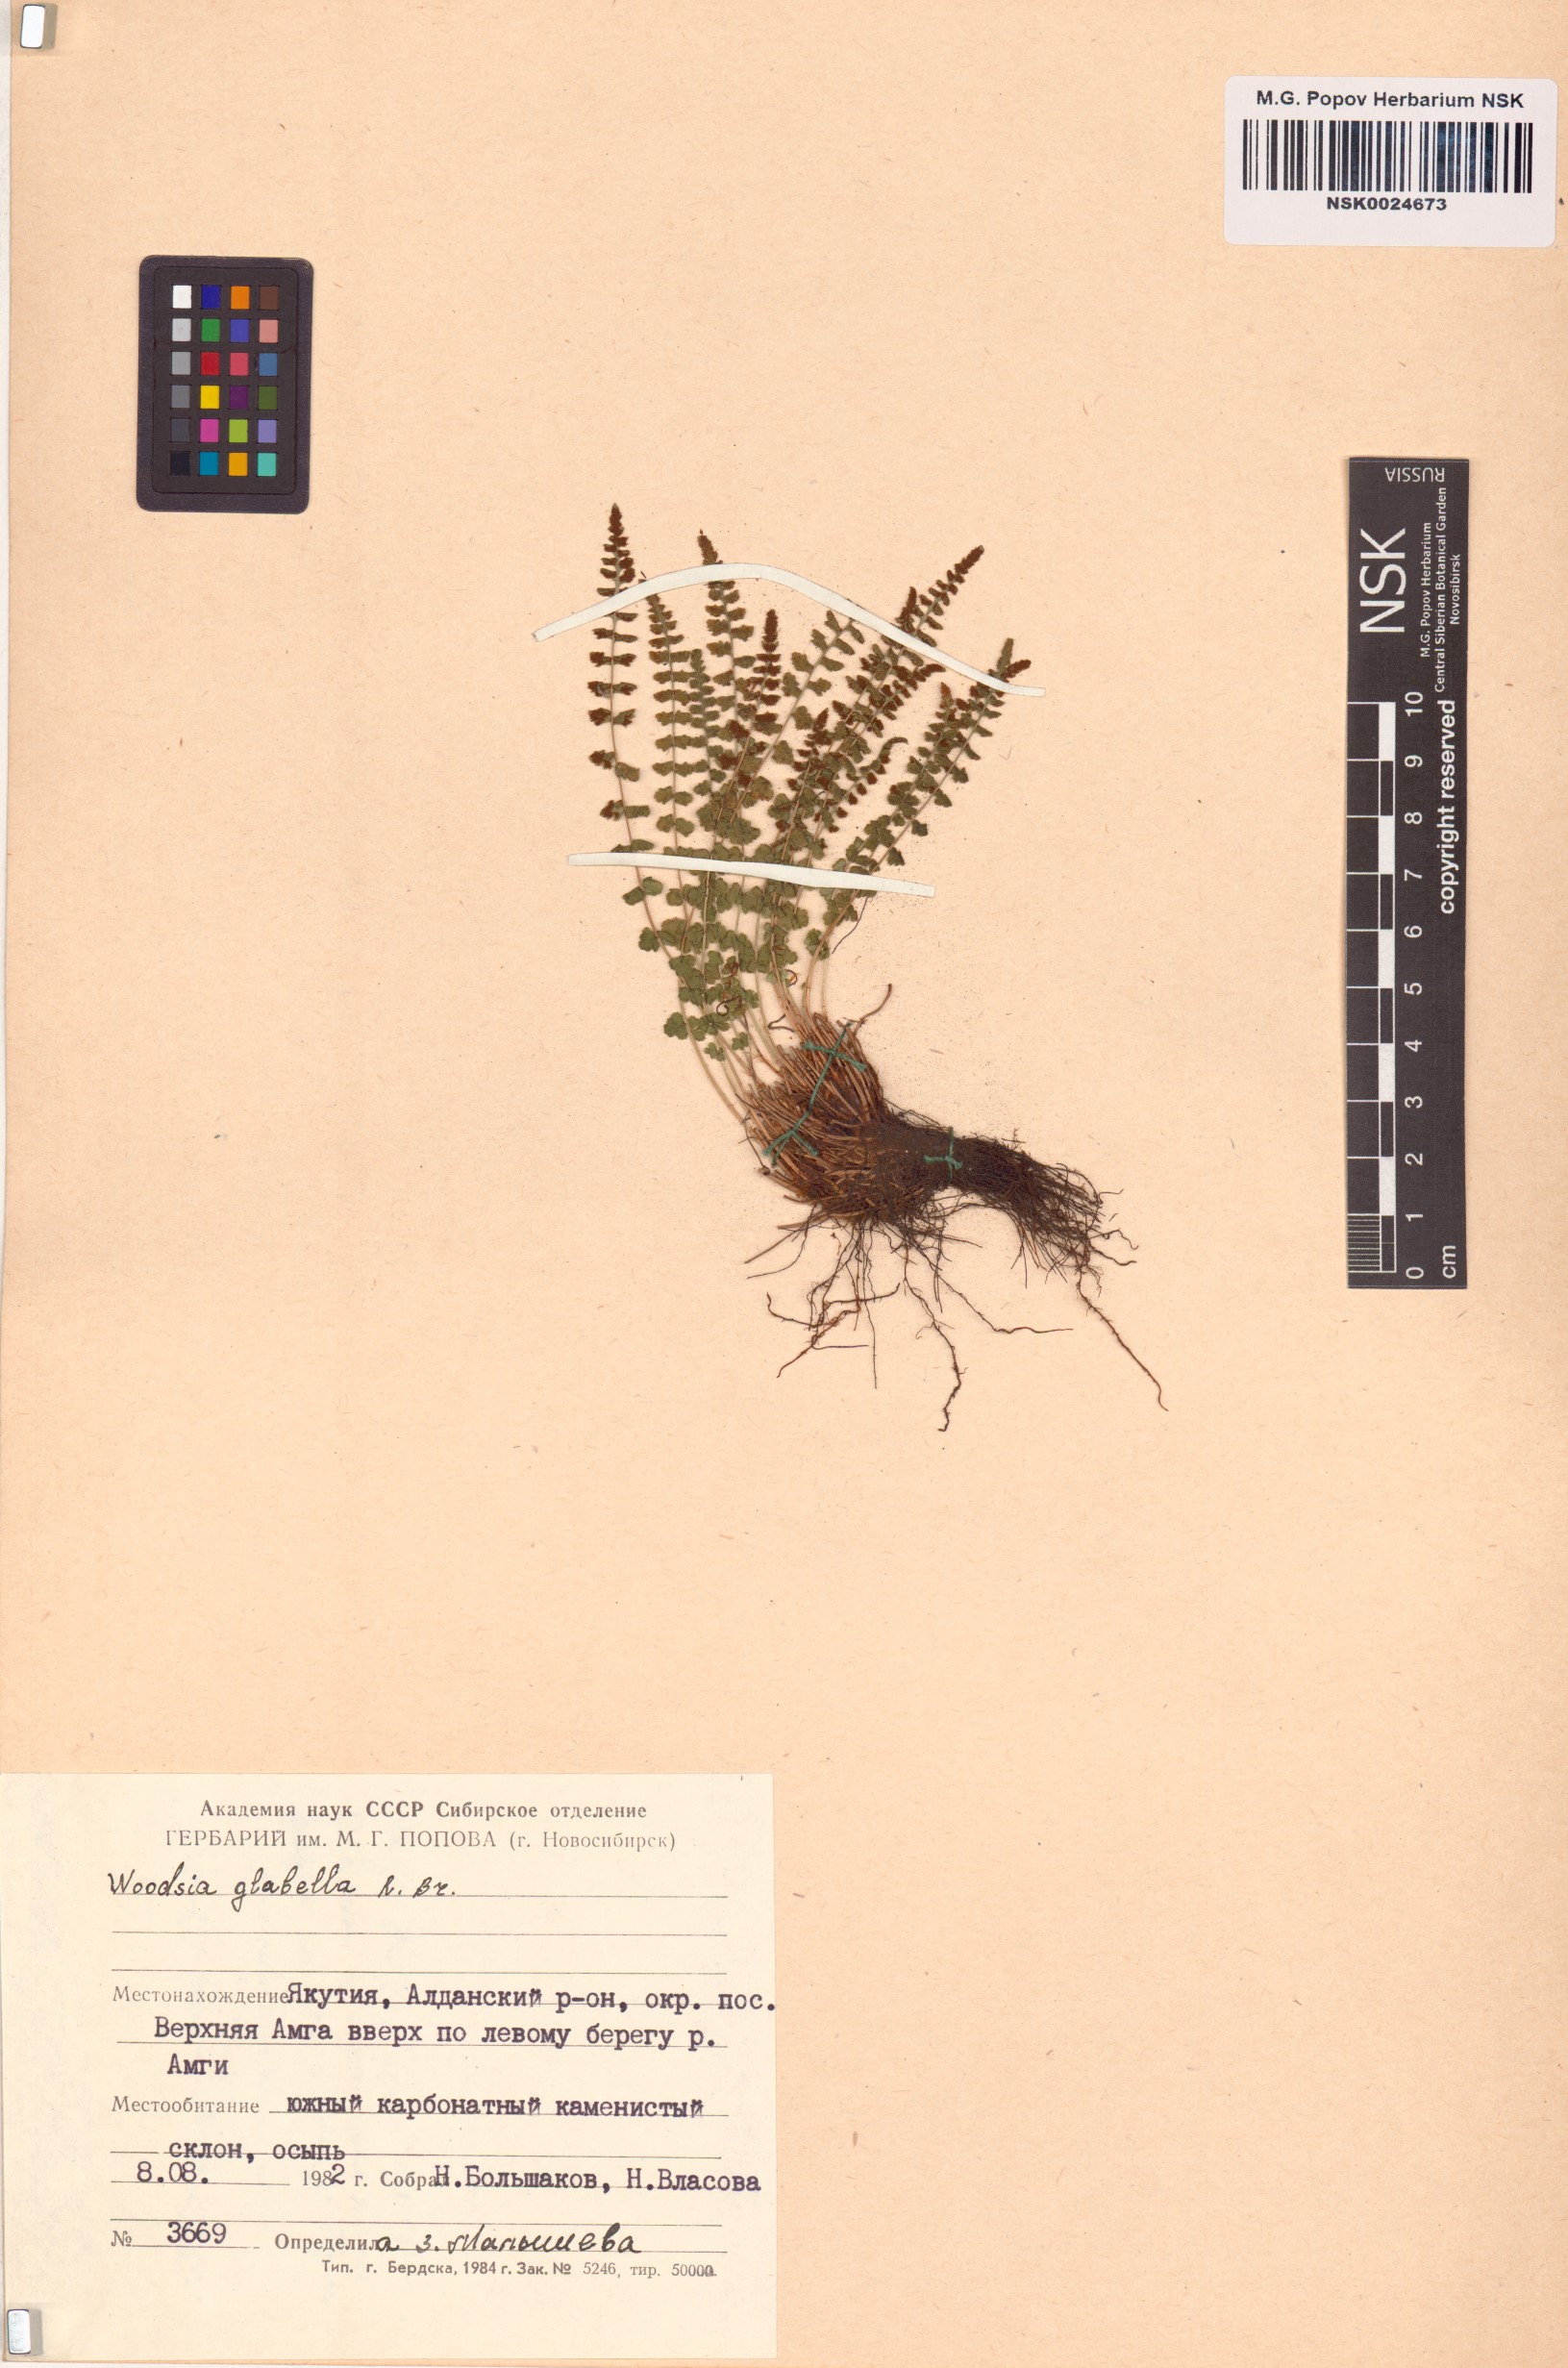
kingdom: Plantae
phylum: Tracheophyta
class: Polypodiopsida
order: Polypodiales
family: Woodsiaceae
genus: Woodsia
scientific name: Woodsia glabella
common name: Smooth woodsia
